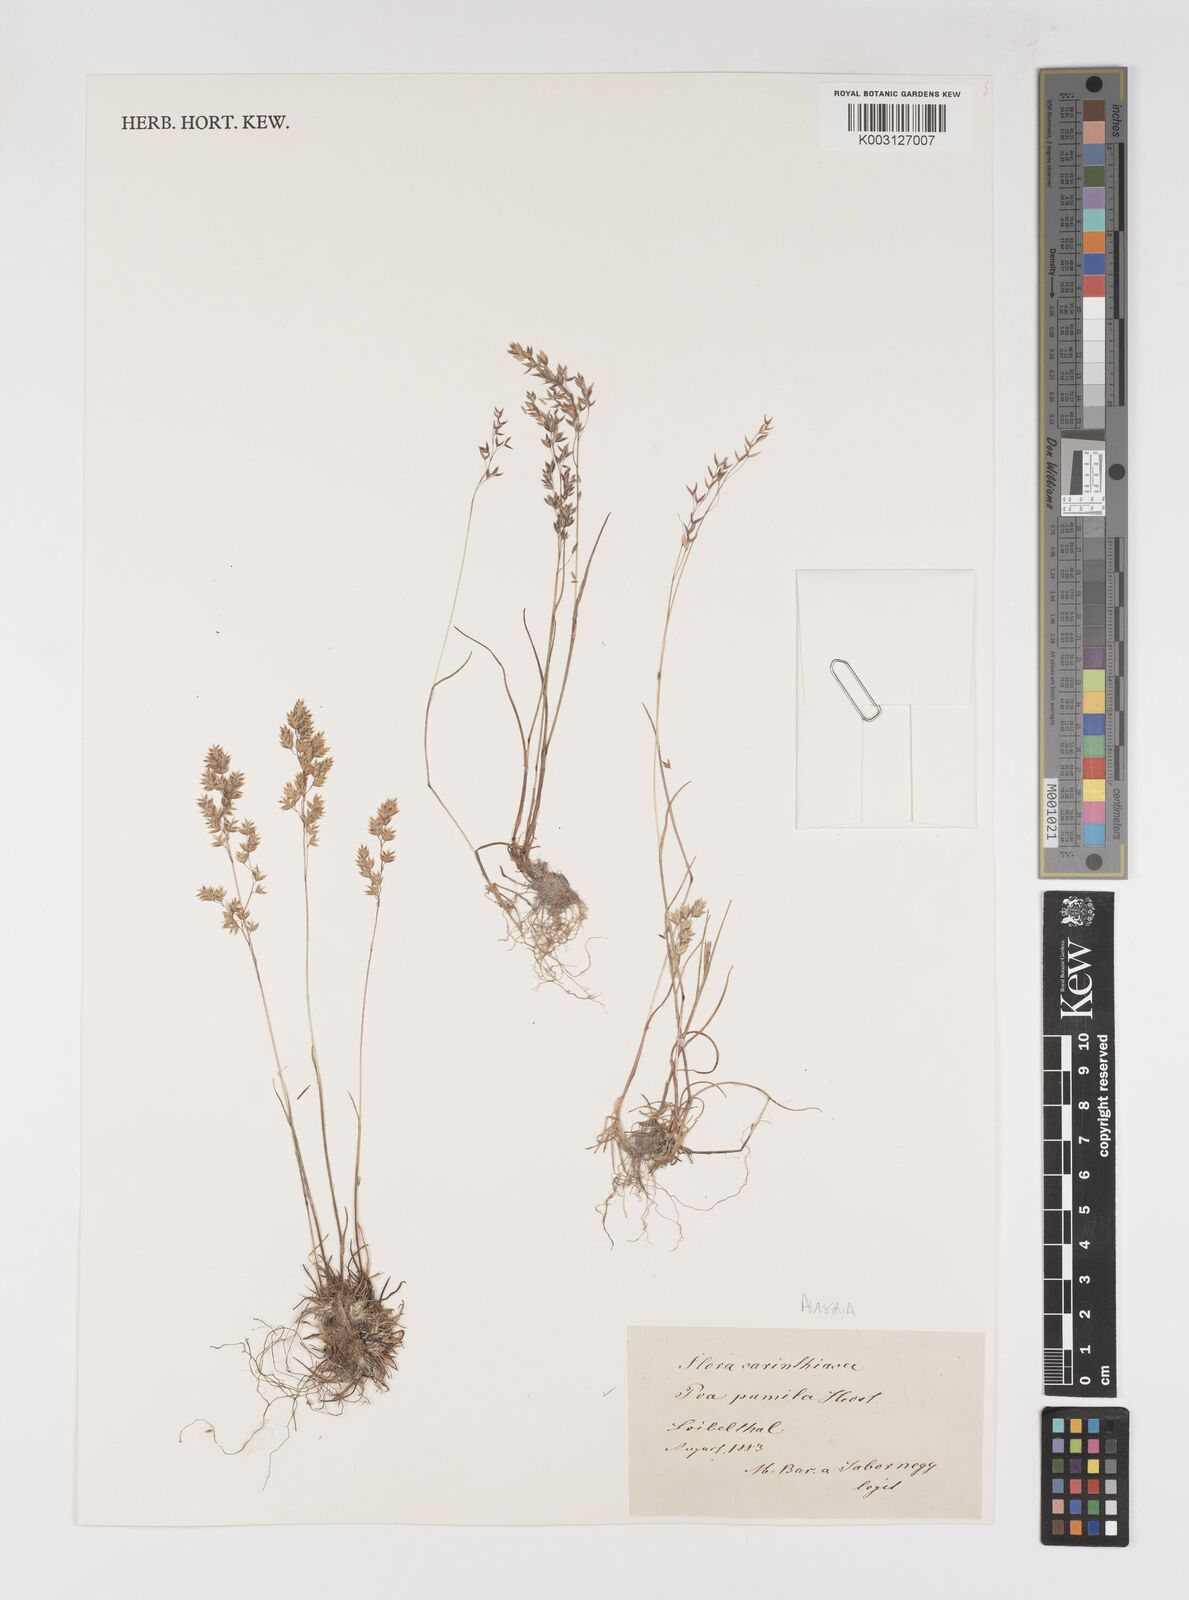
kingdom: Plantae
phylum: Tracheophyta
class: Liliopsida
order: Poales
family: Poaceae
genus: Poa
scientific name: Poa pumila
